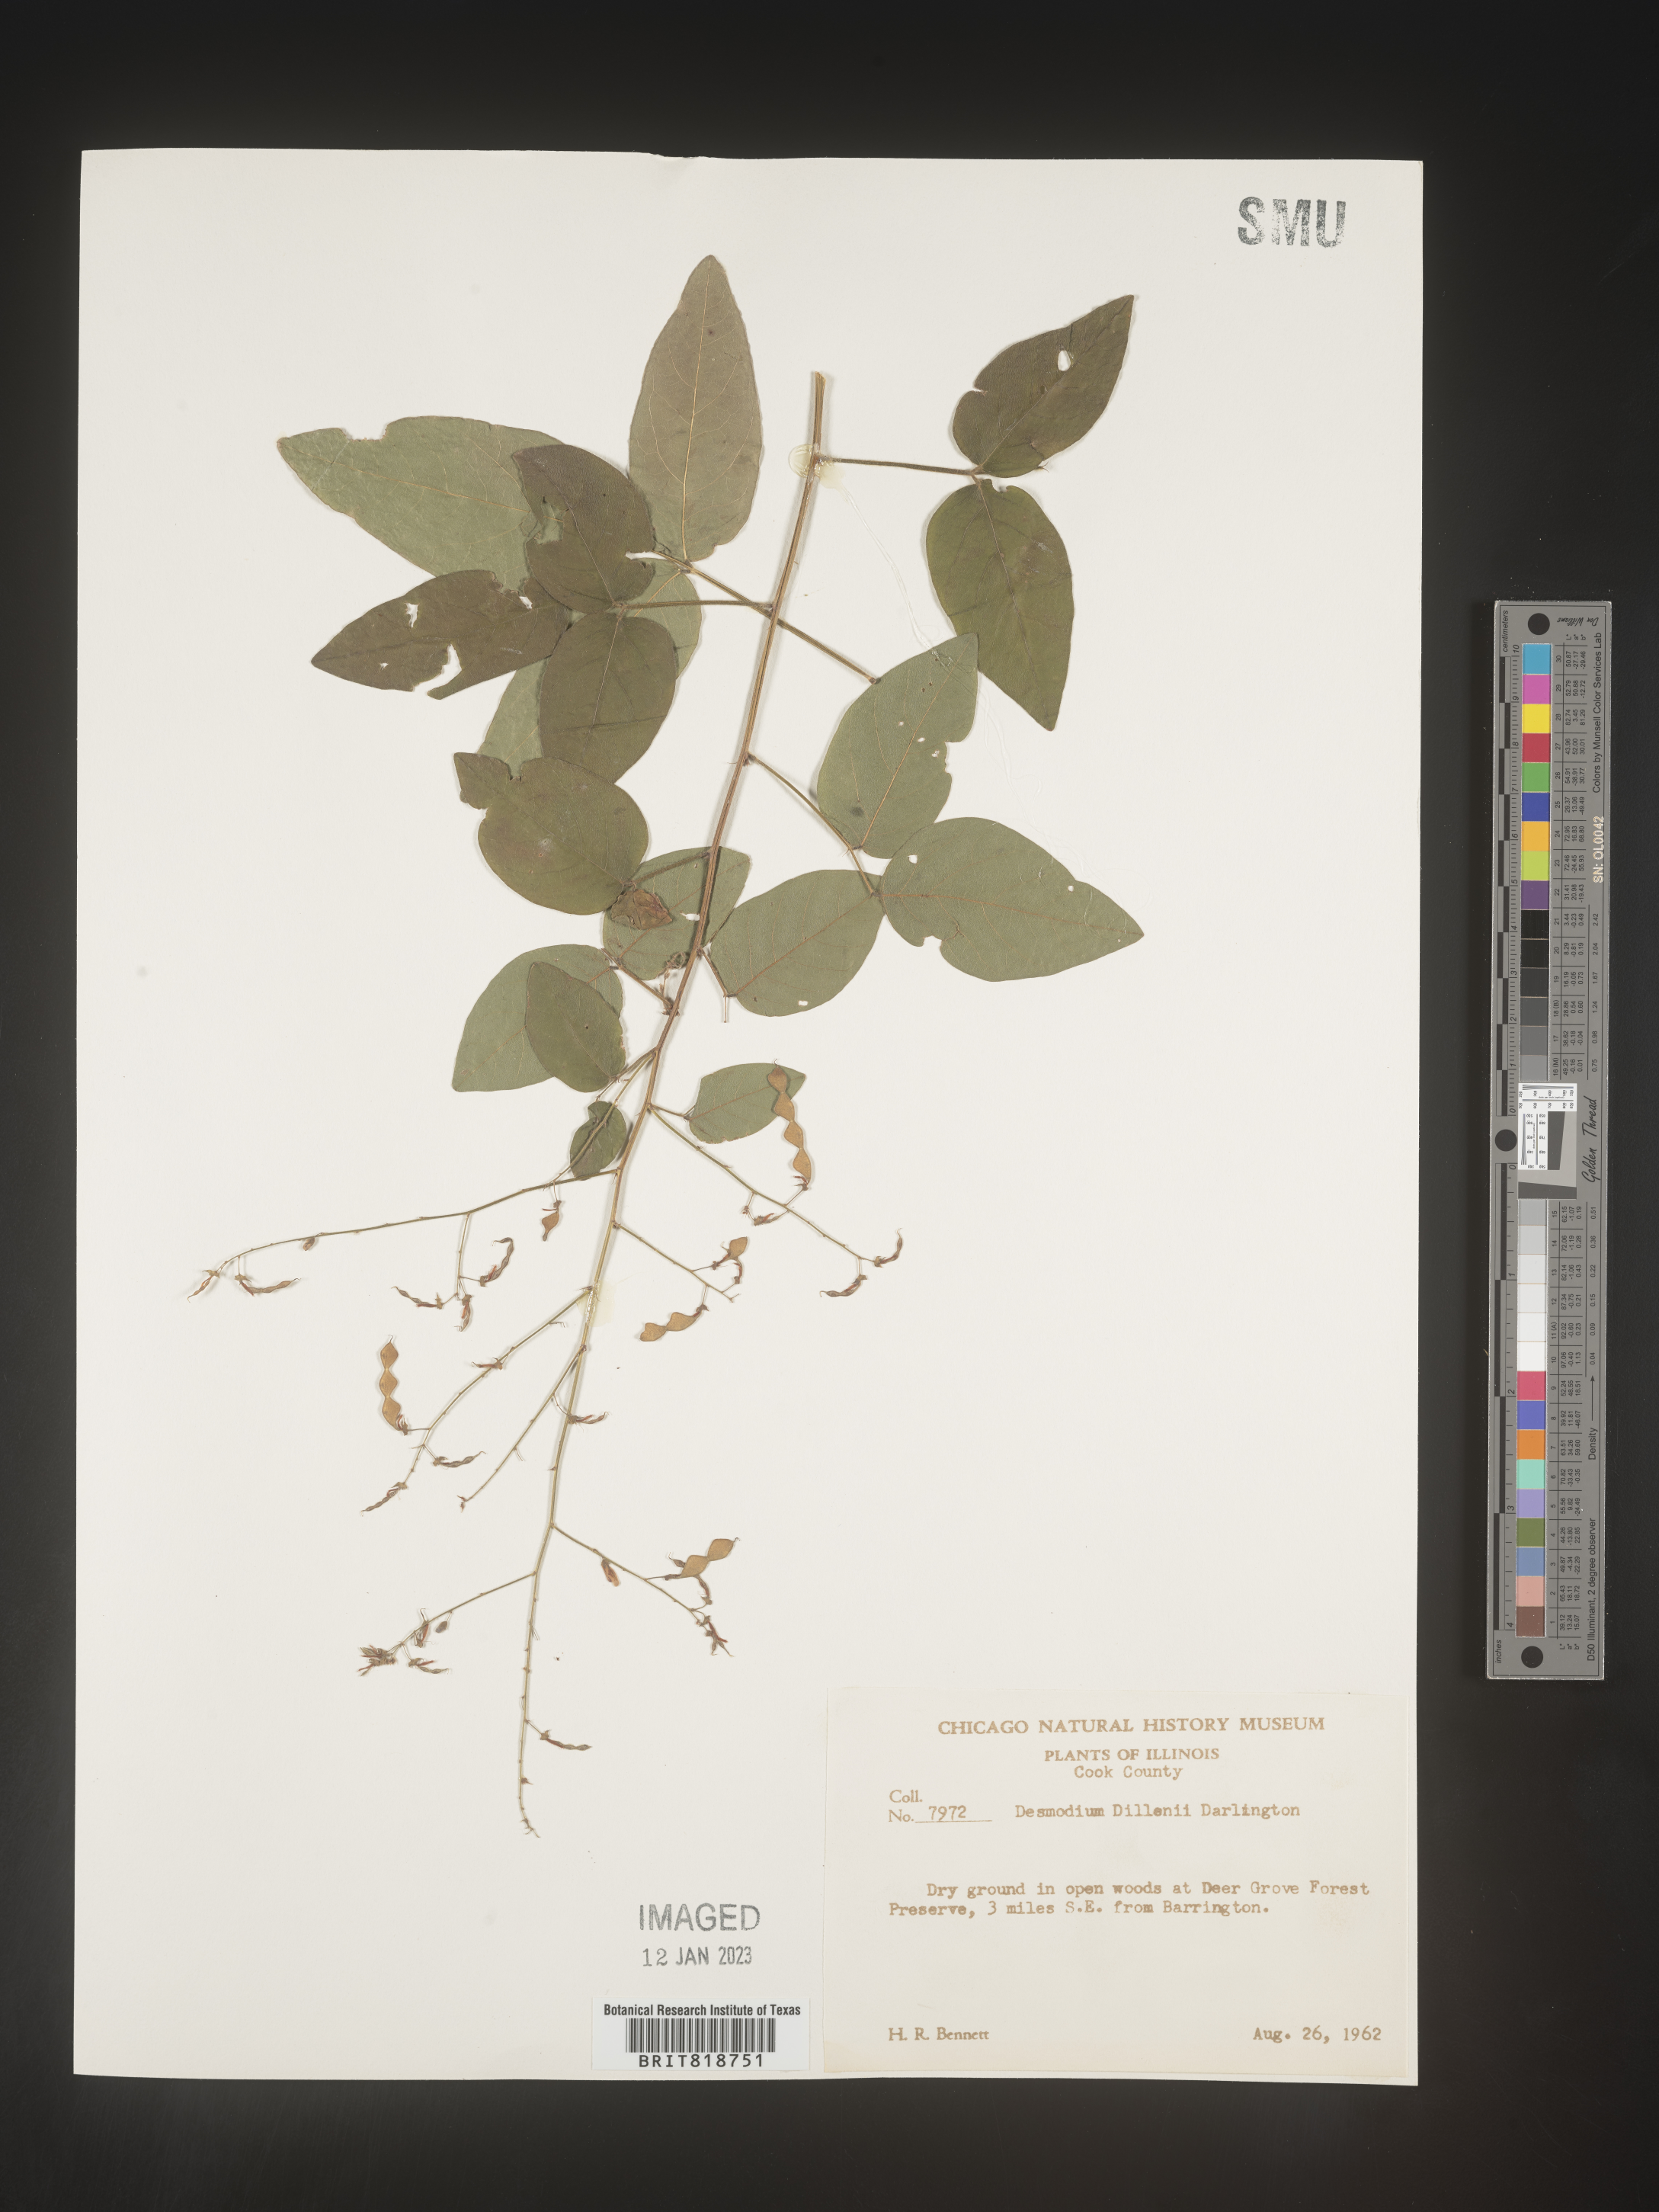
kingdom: Plantae
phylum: Tracheophyta
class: Magnoliopsida
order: Fabales
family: Fabaceae
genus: Desmodium
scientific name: Desmodium perplexum
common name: Perplexed tick trefoil
